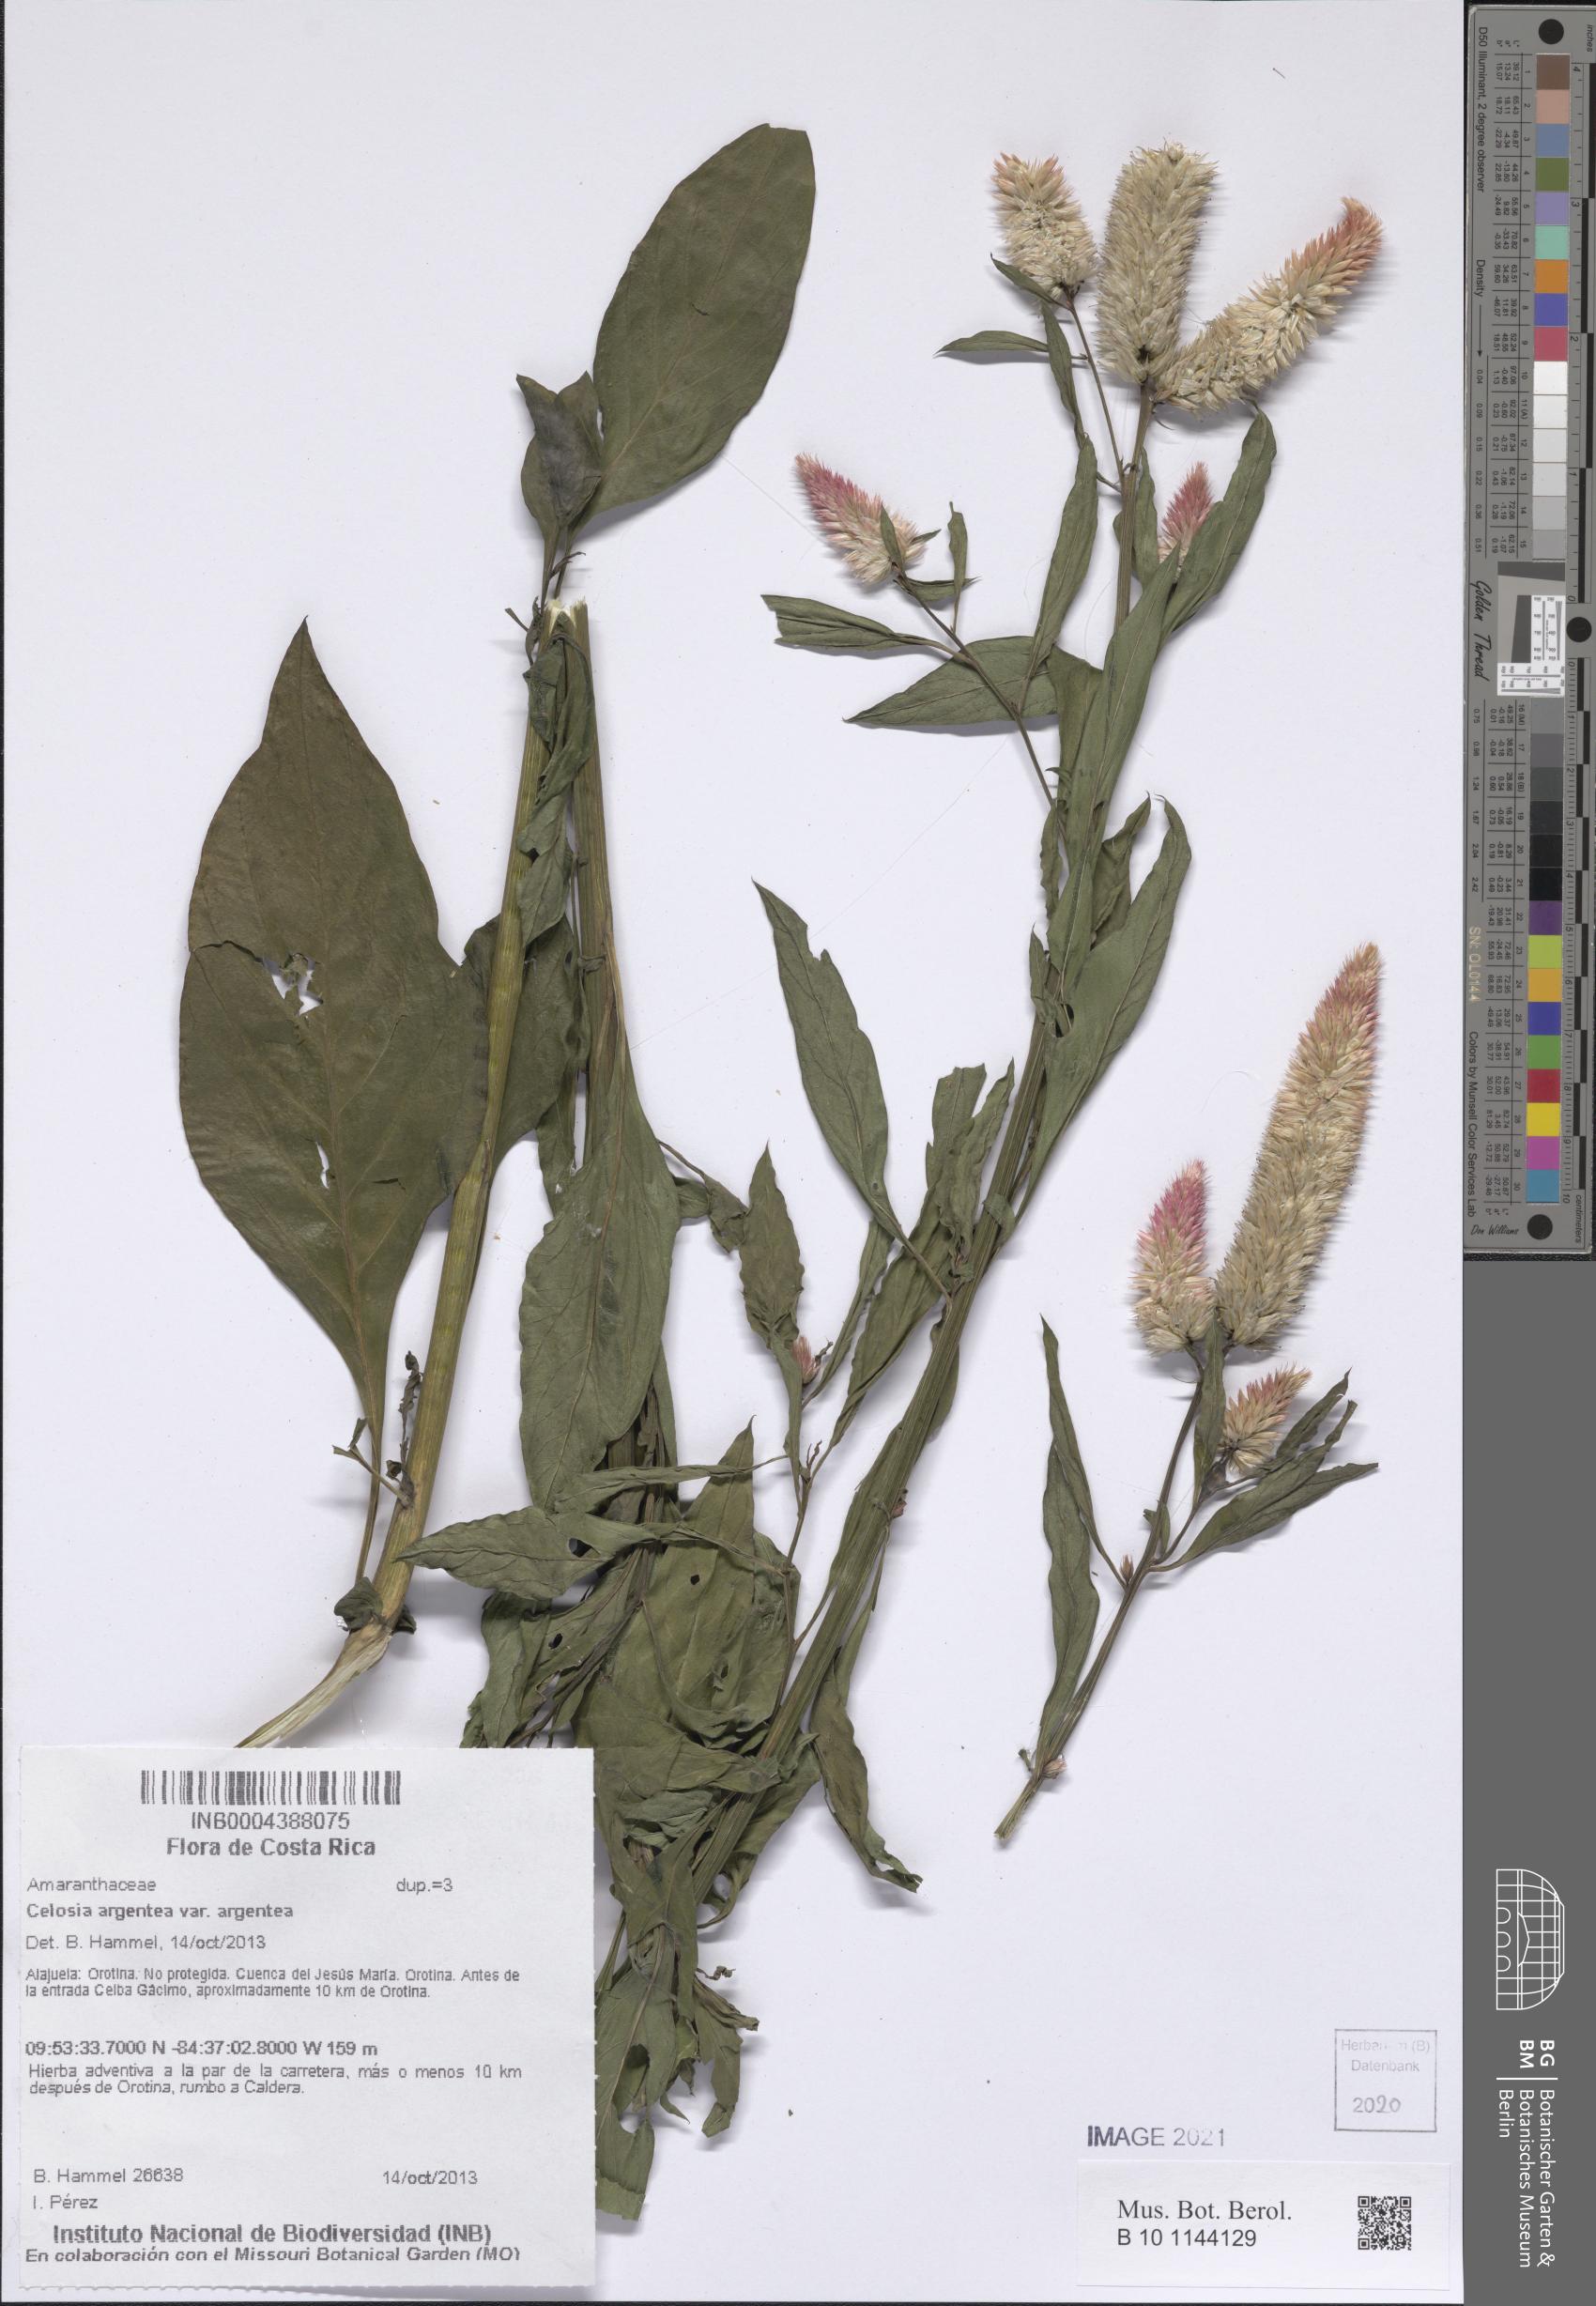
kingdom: Plantae
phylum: Tracheophyta
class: Magnoliopsida
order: Caryophyllales
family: Amaranthaceae
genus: Celosia
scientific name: Celosia argentea
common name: Feather cockscomb
